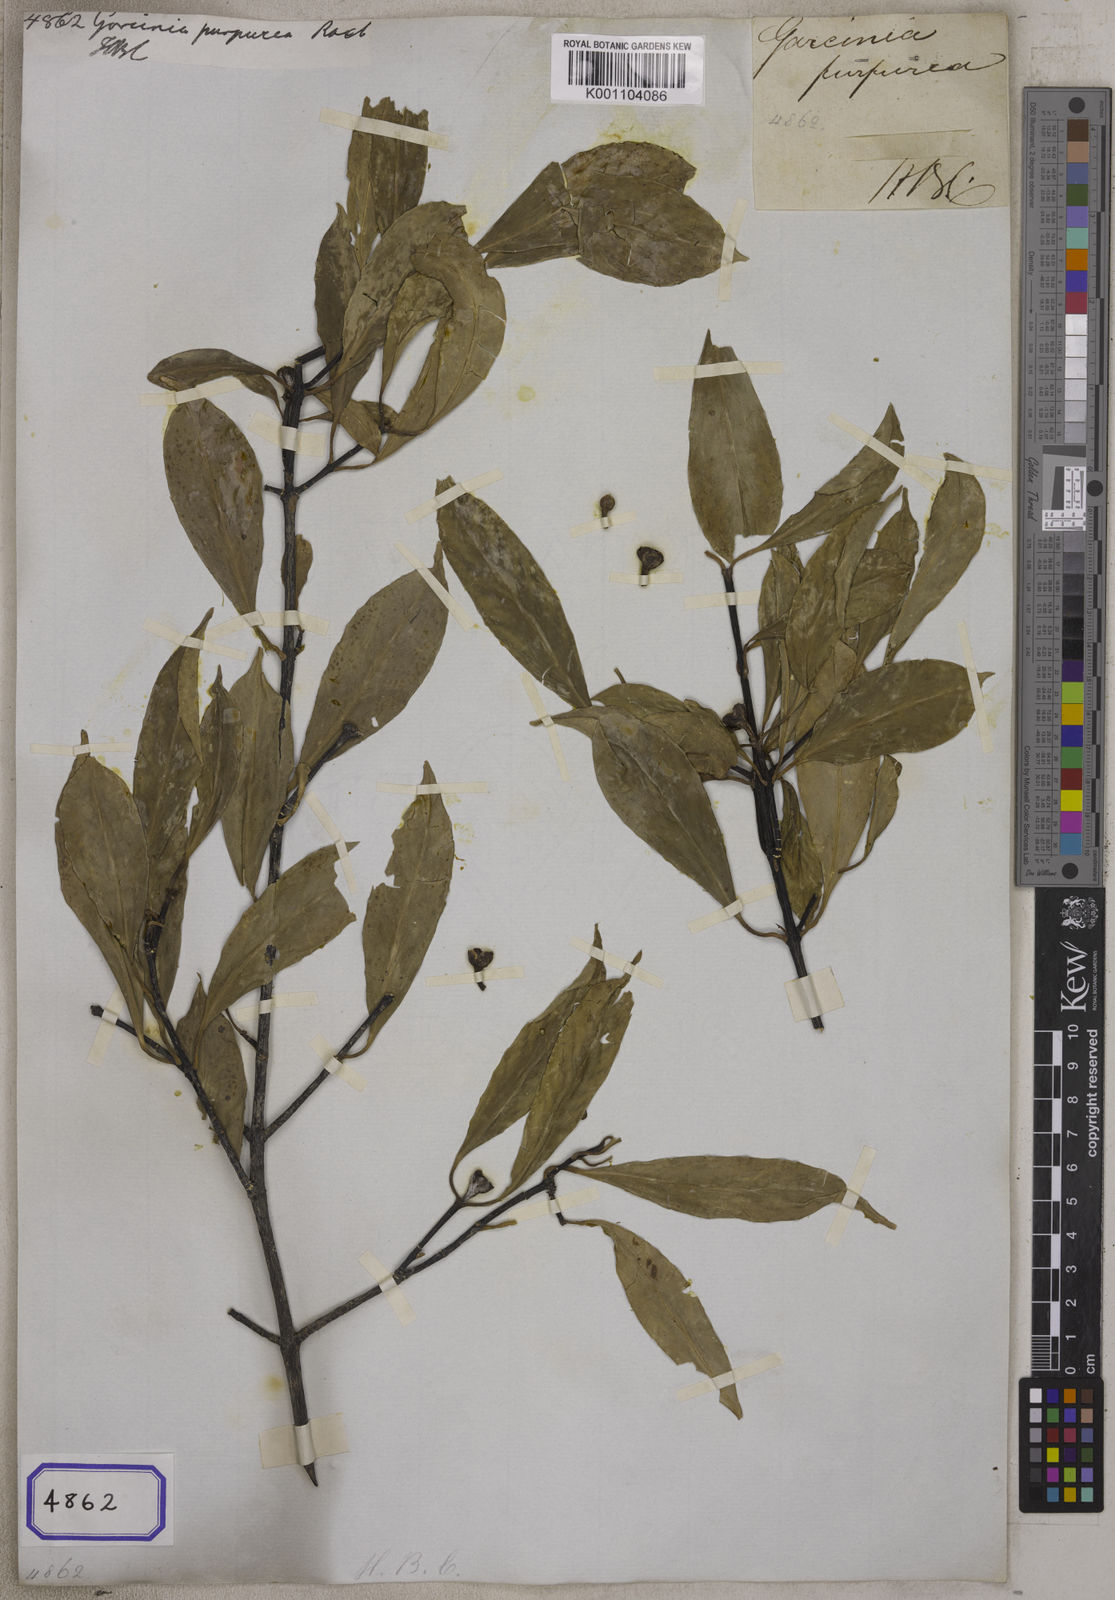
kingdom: Plantae
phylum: Tracheophyta
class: Magnoliopsida
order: Malpighiales
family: Clusiaceae
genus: Garcinia
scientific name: Garcinia
